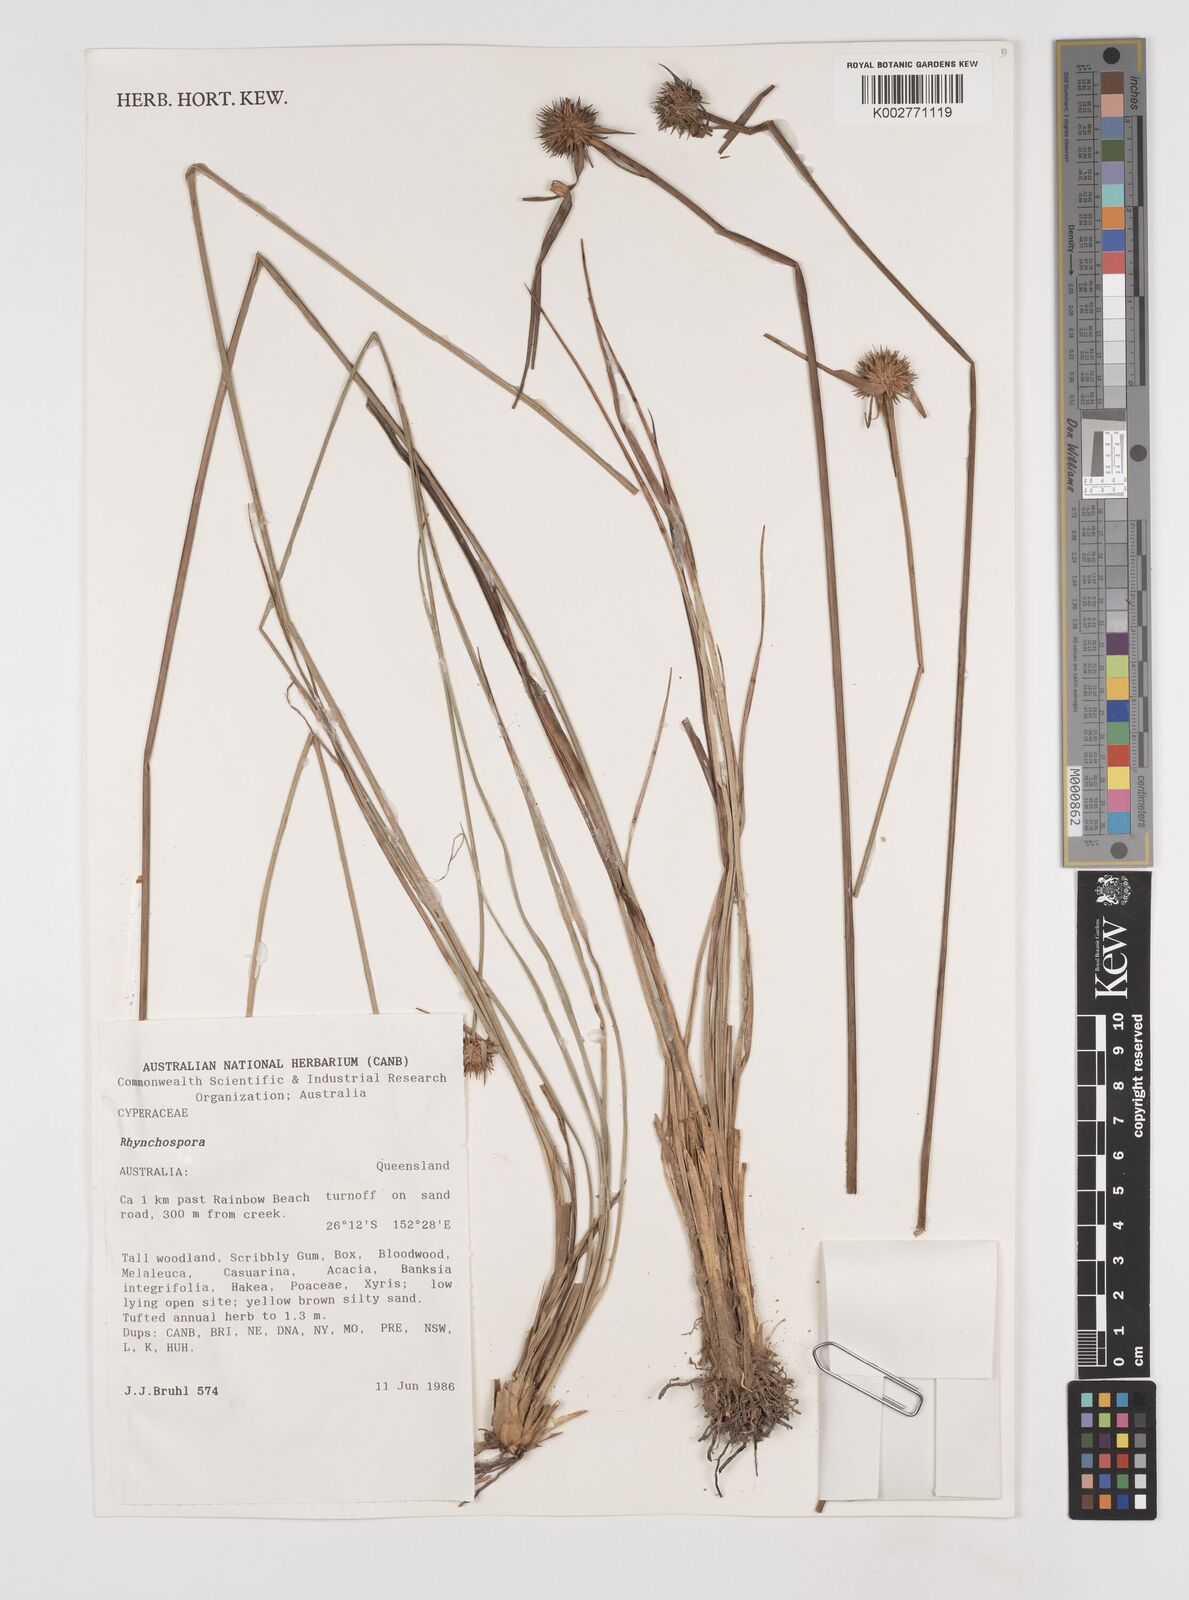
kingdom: Plantae
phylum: Tracheophyta
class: Liliopsida
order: Poales
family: Cyperaceae
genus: Rhynchospora
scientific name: Rhynchospora
